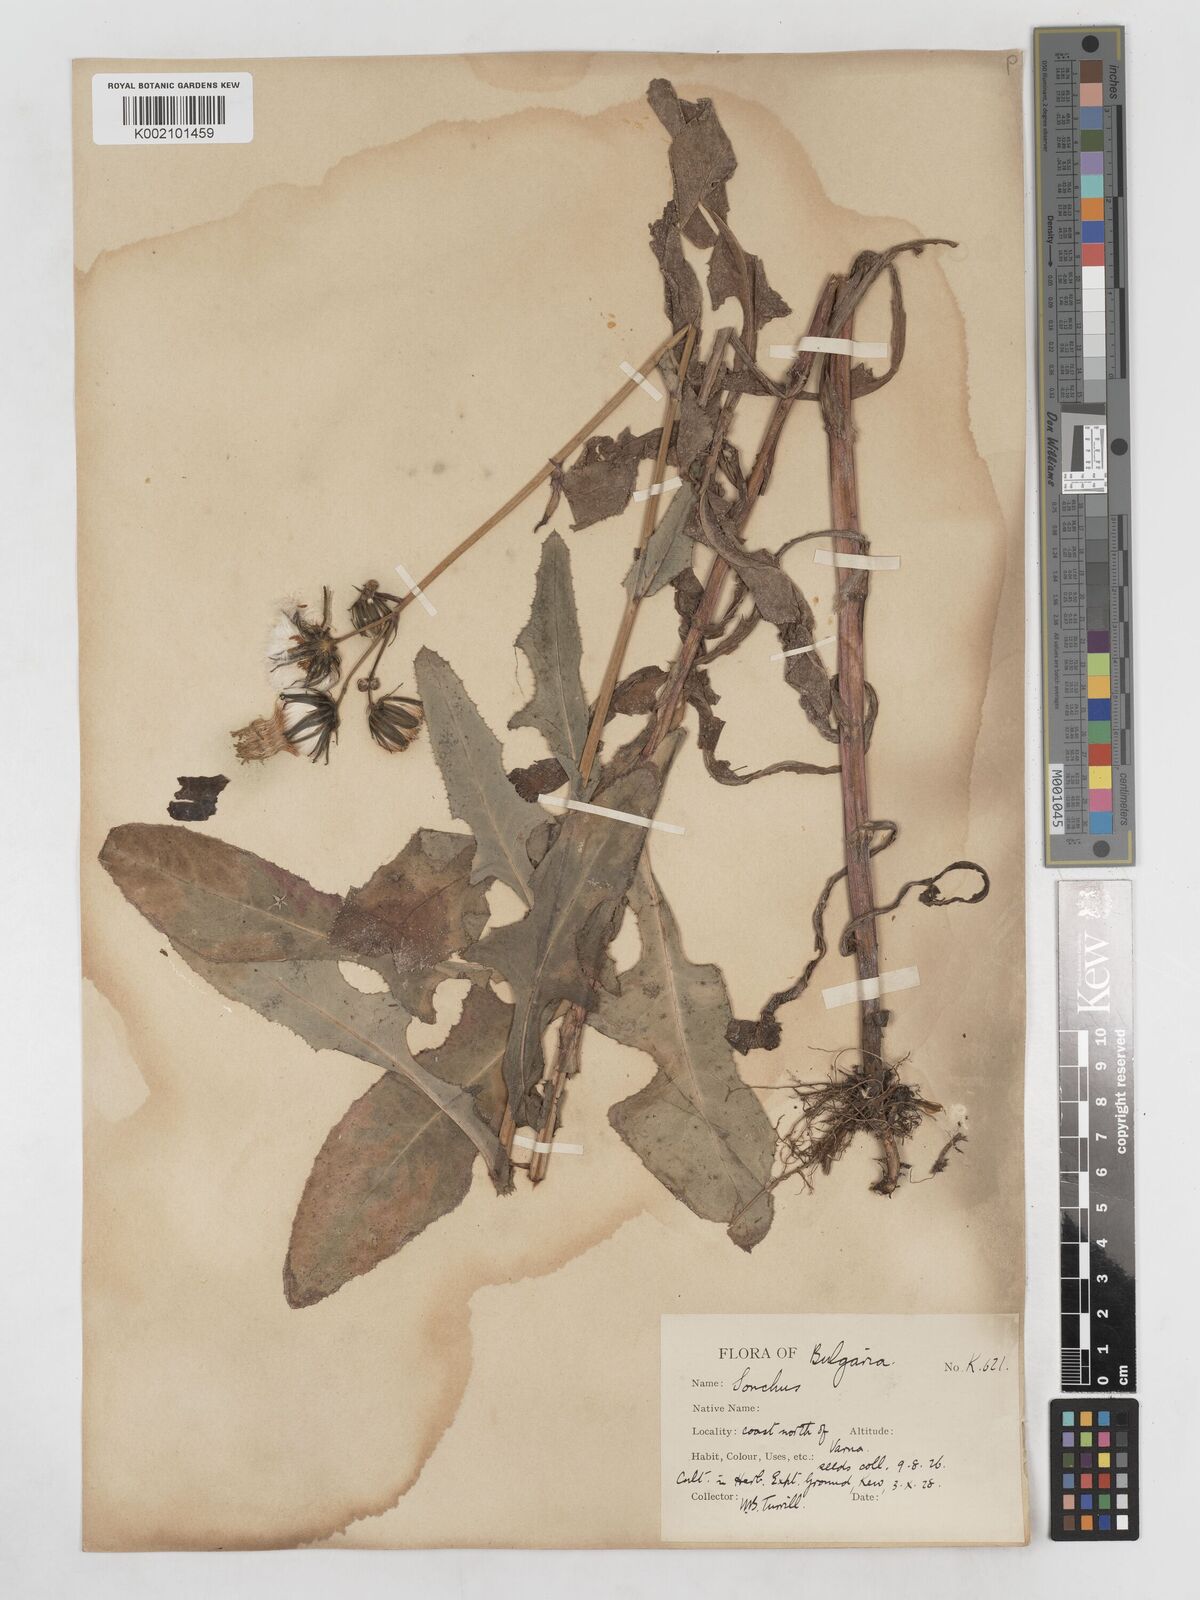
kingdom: Plantae
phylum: Tracheophyta
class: Magnoliopsida
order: Asterales
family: Asteraceae
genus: Sonchus
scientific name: Sonchus arvensis
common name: Perennial sow-thistle
